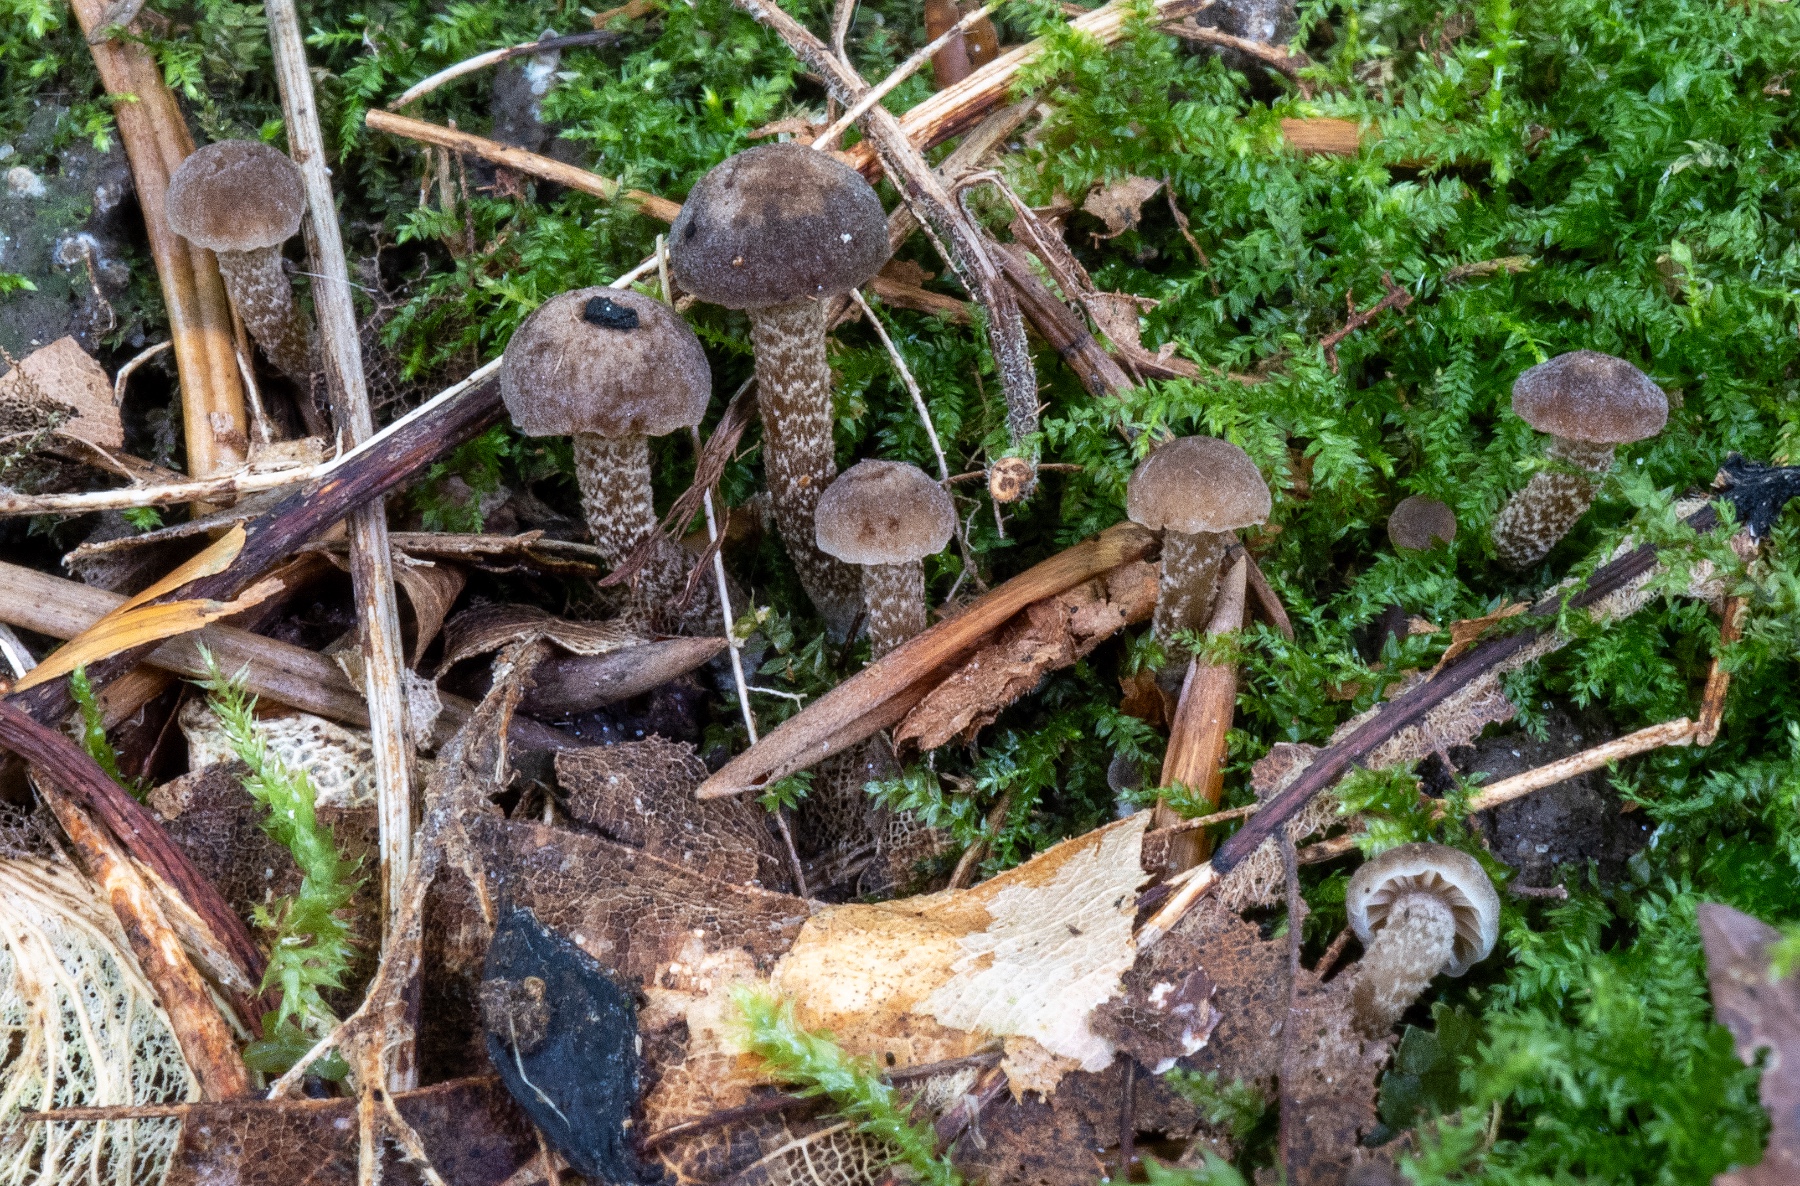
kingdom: Fungi
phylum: Basidiomycota
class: Agaricomycetes
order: Agaricales
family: Clavariaceae
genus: Hodophilus
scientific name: Hodophilus
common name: kratvokshat
